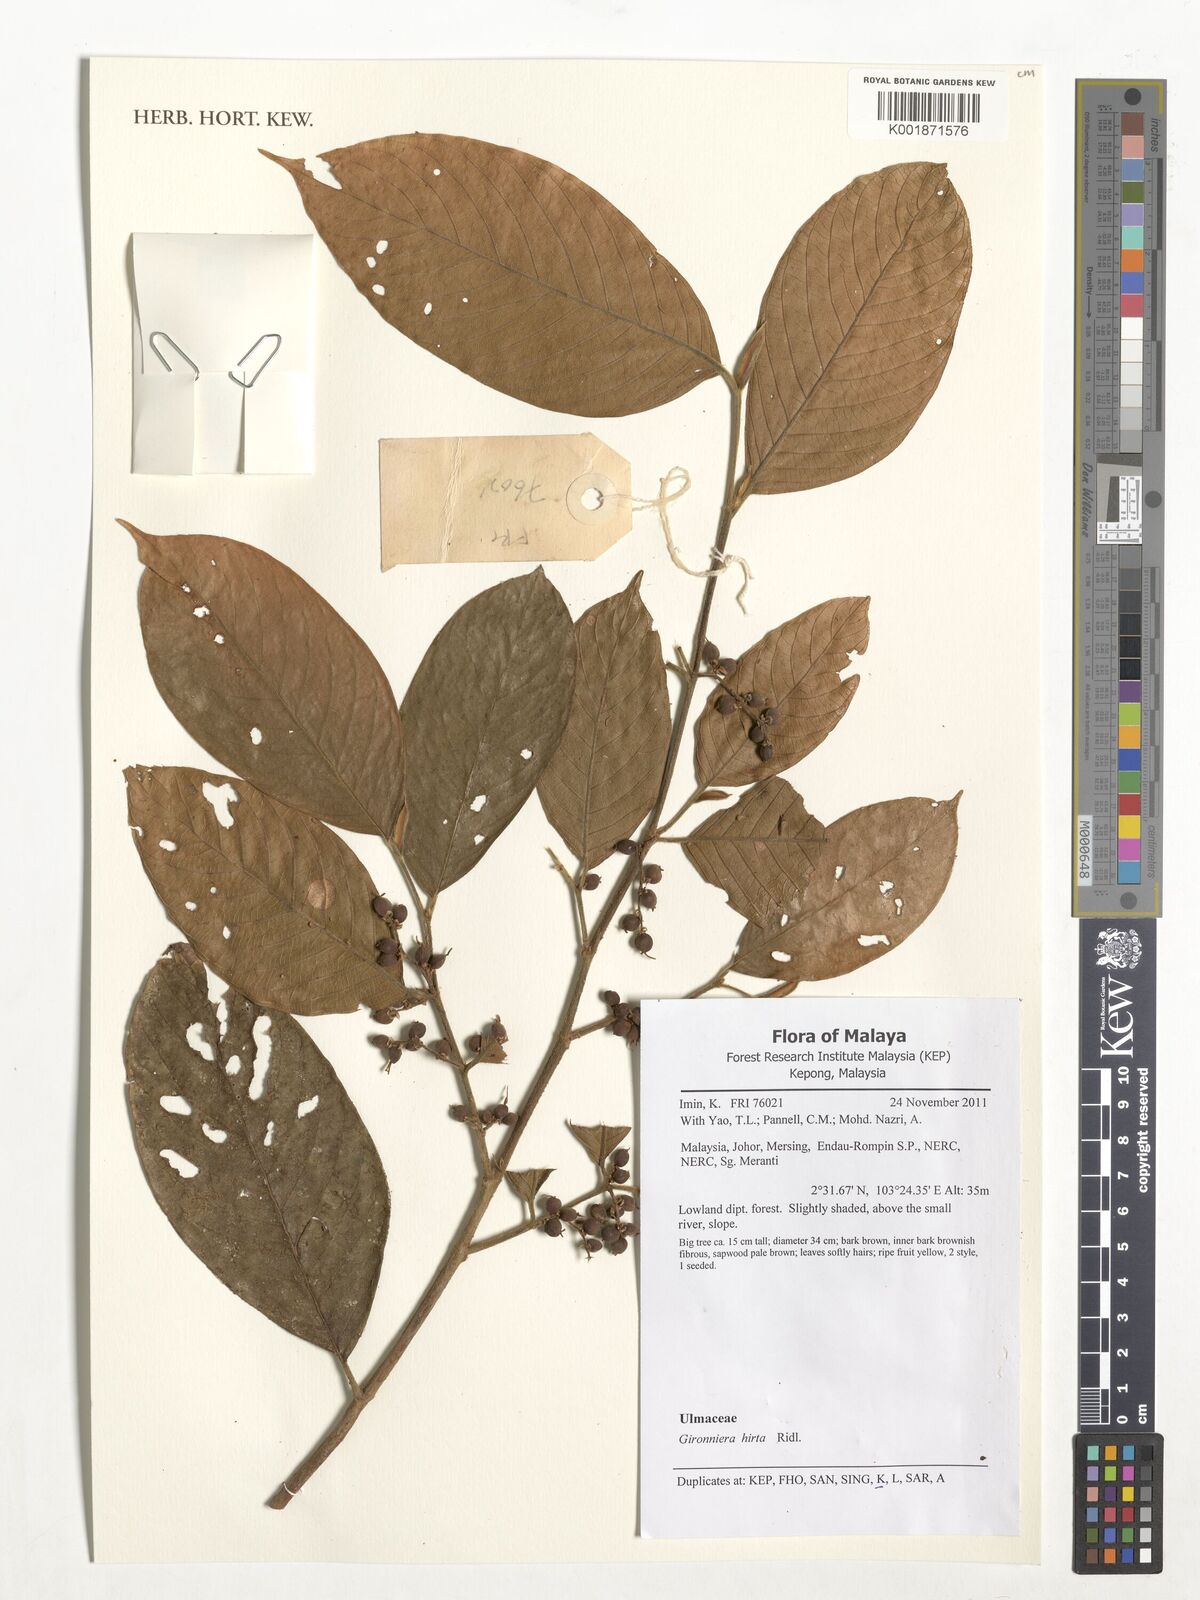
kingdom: Plantae
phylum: Tracheophyta
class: Magnoliopsida
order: Rosales
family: Cannabaceae
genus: Gironniera
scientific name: Gironniera hirta
